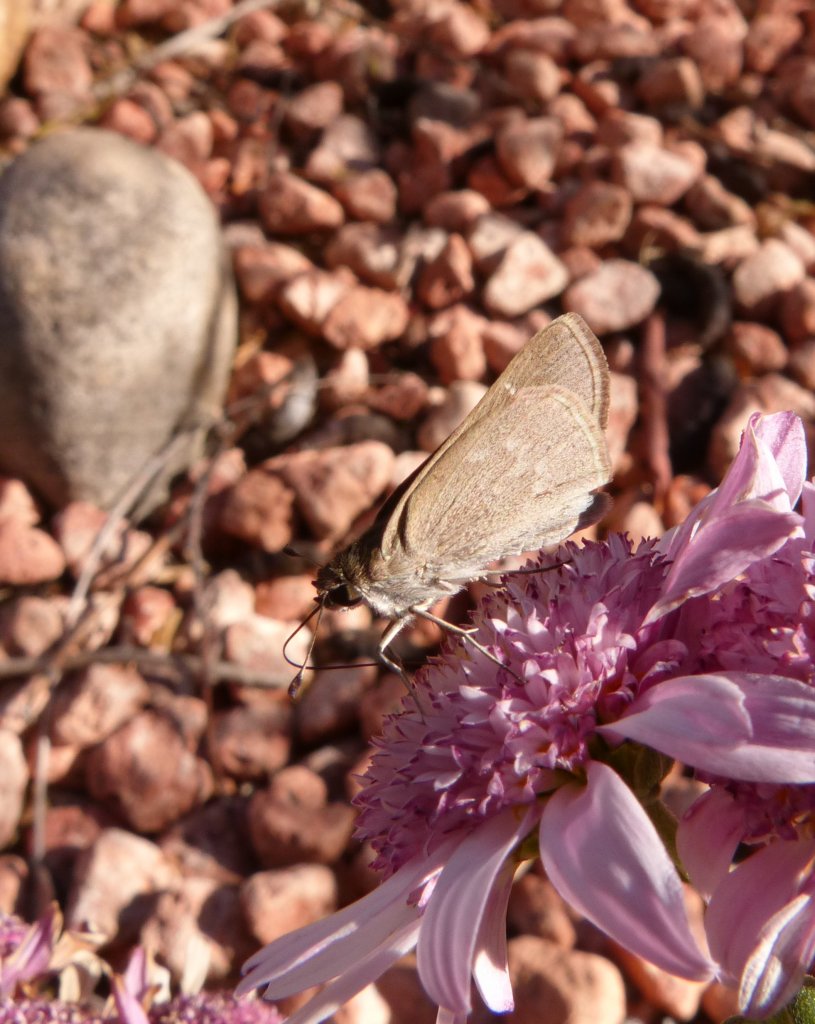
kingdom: Animalia
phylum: Arthropoda
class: Insecta
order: Lepidoptera
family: Hesperiidae
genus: Lerodea
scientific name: Lerodea eufala
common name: Eufala Skipper
